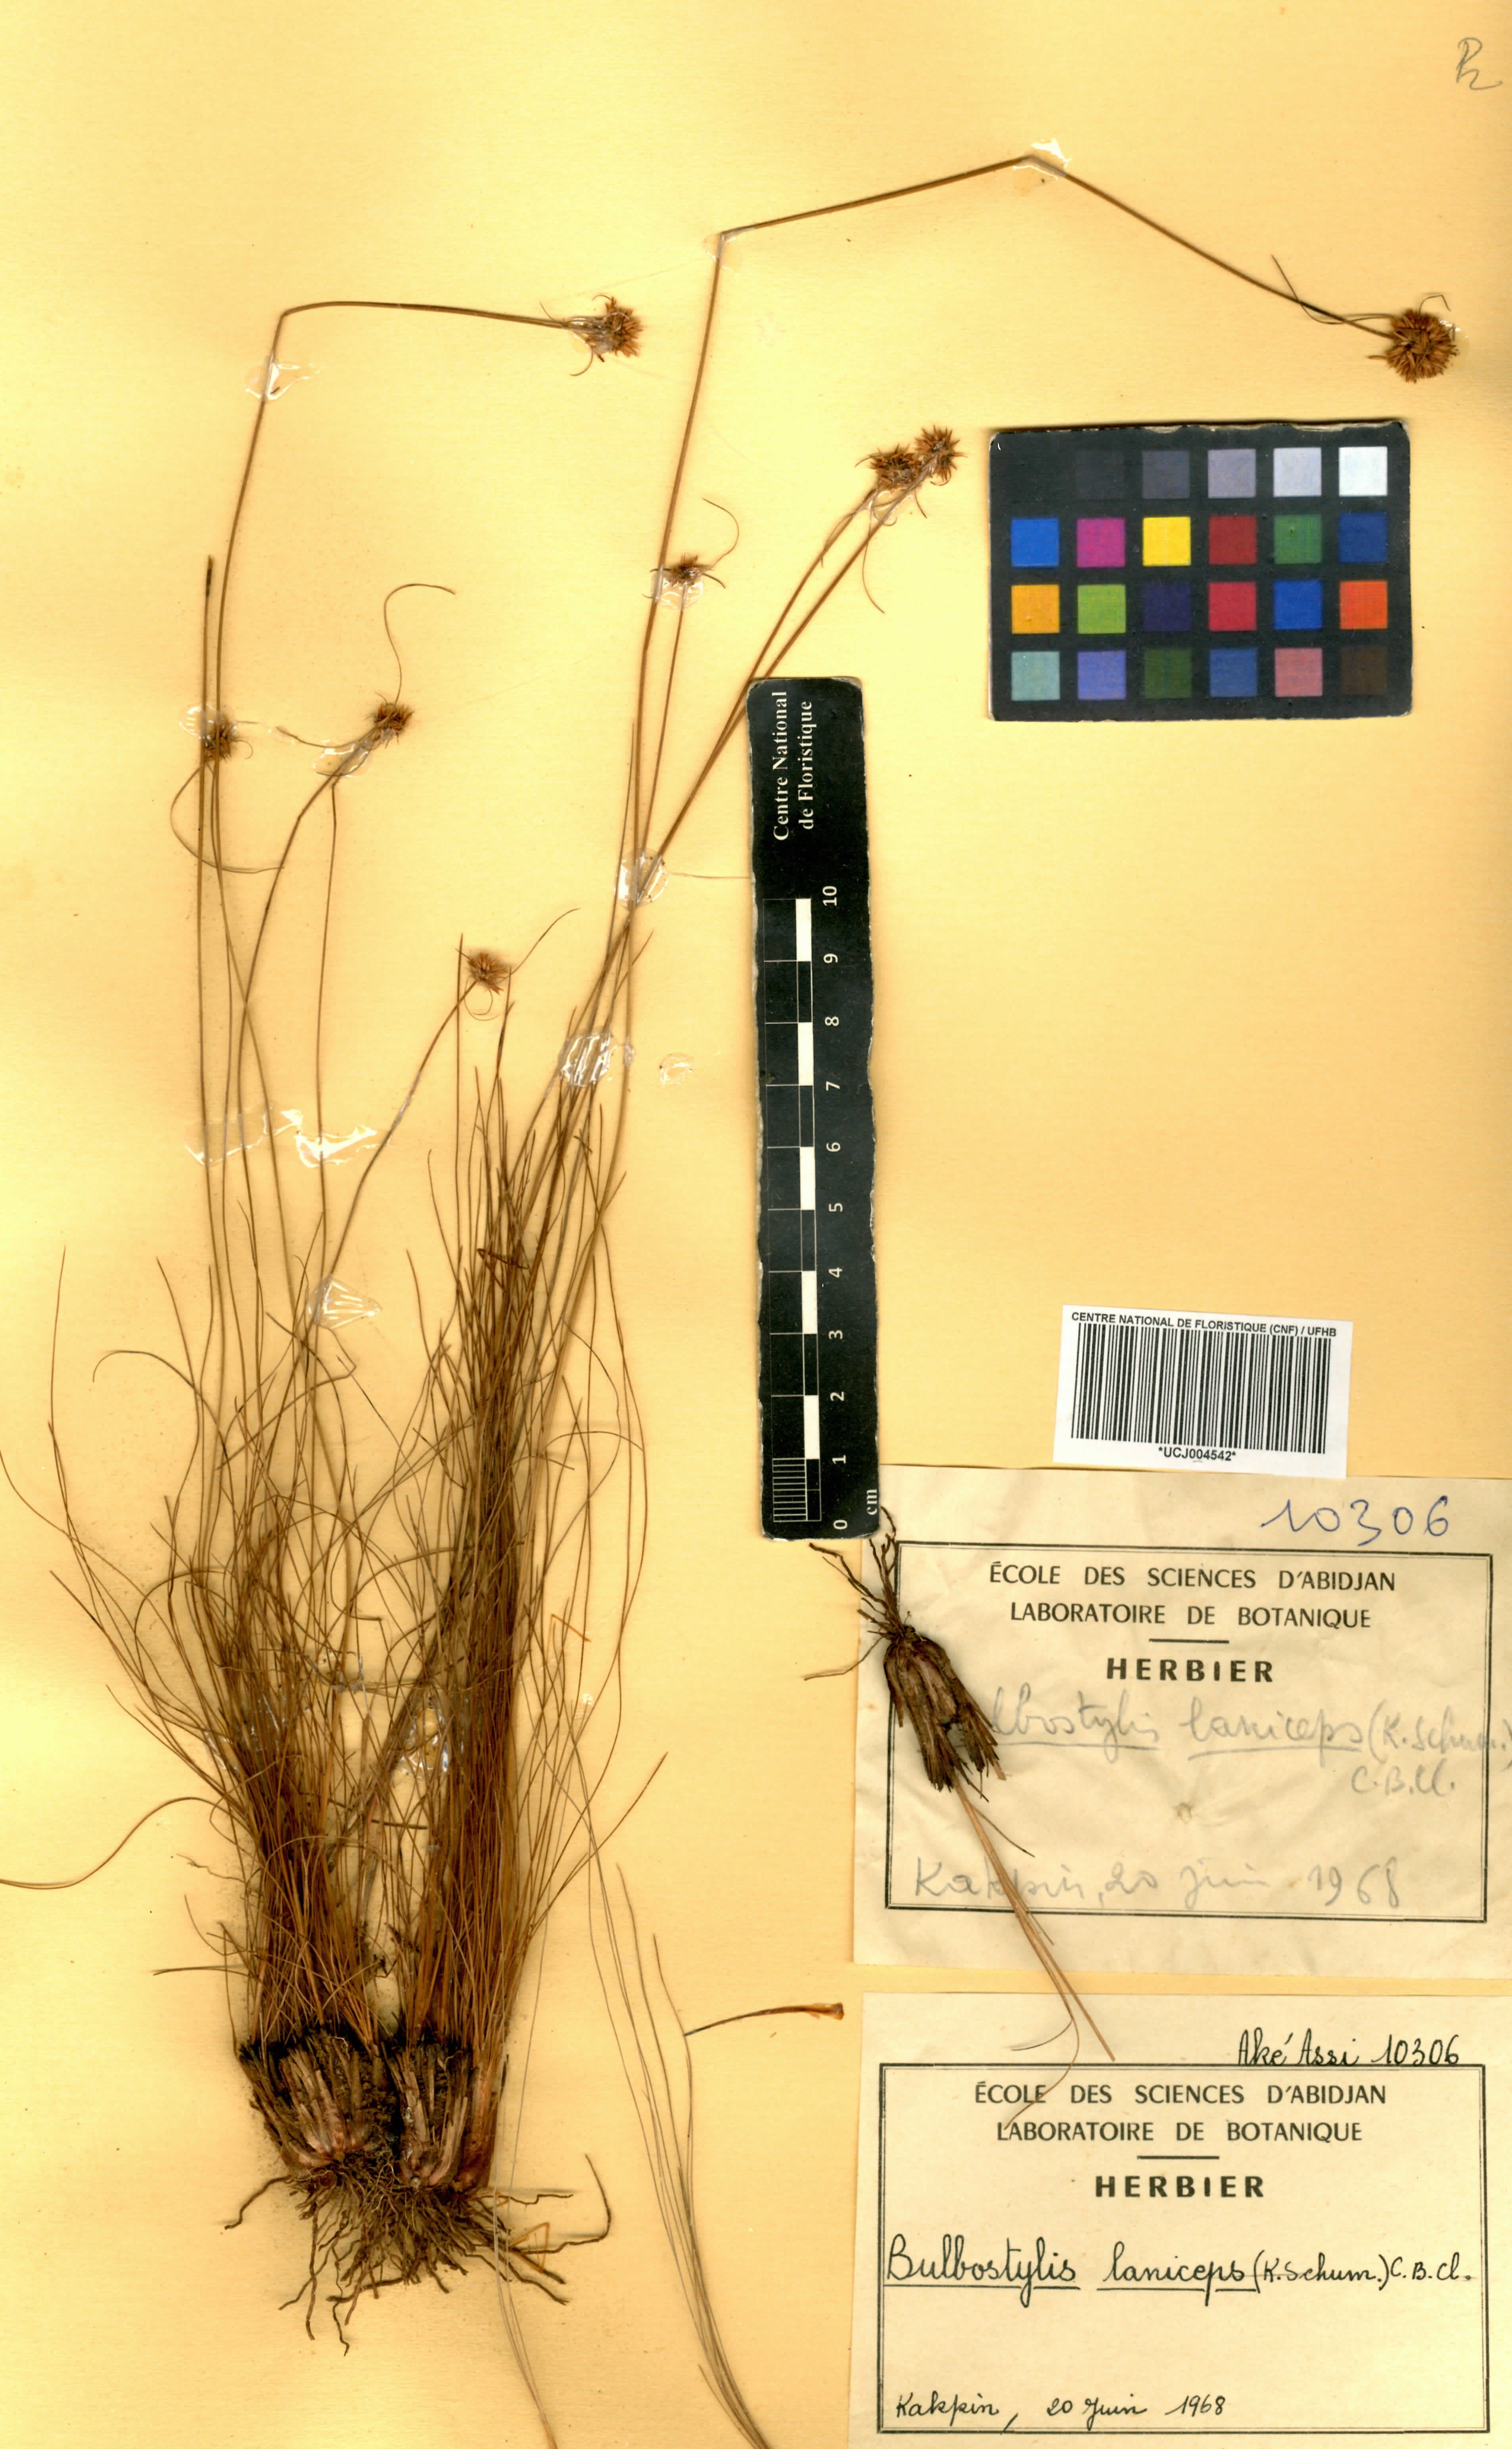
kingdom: Plantae
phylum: Tracheophyta
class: Liliopsida
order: Poales
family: Cyperaceae
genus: Bulbostylis
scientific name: Bulbostylis laniceps
